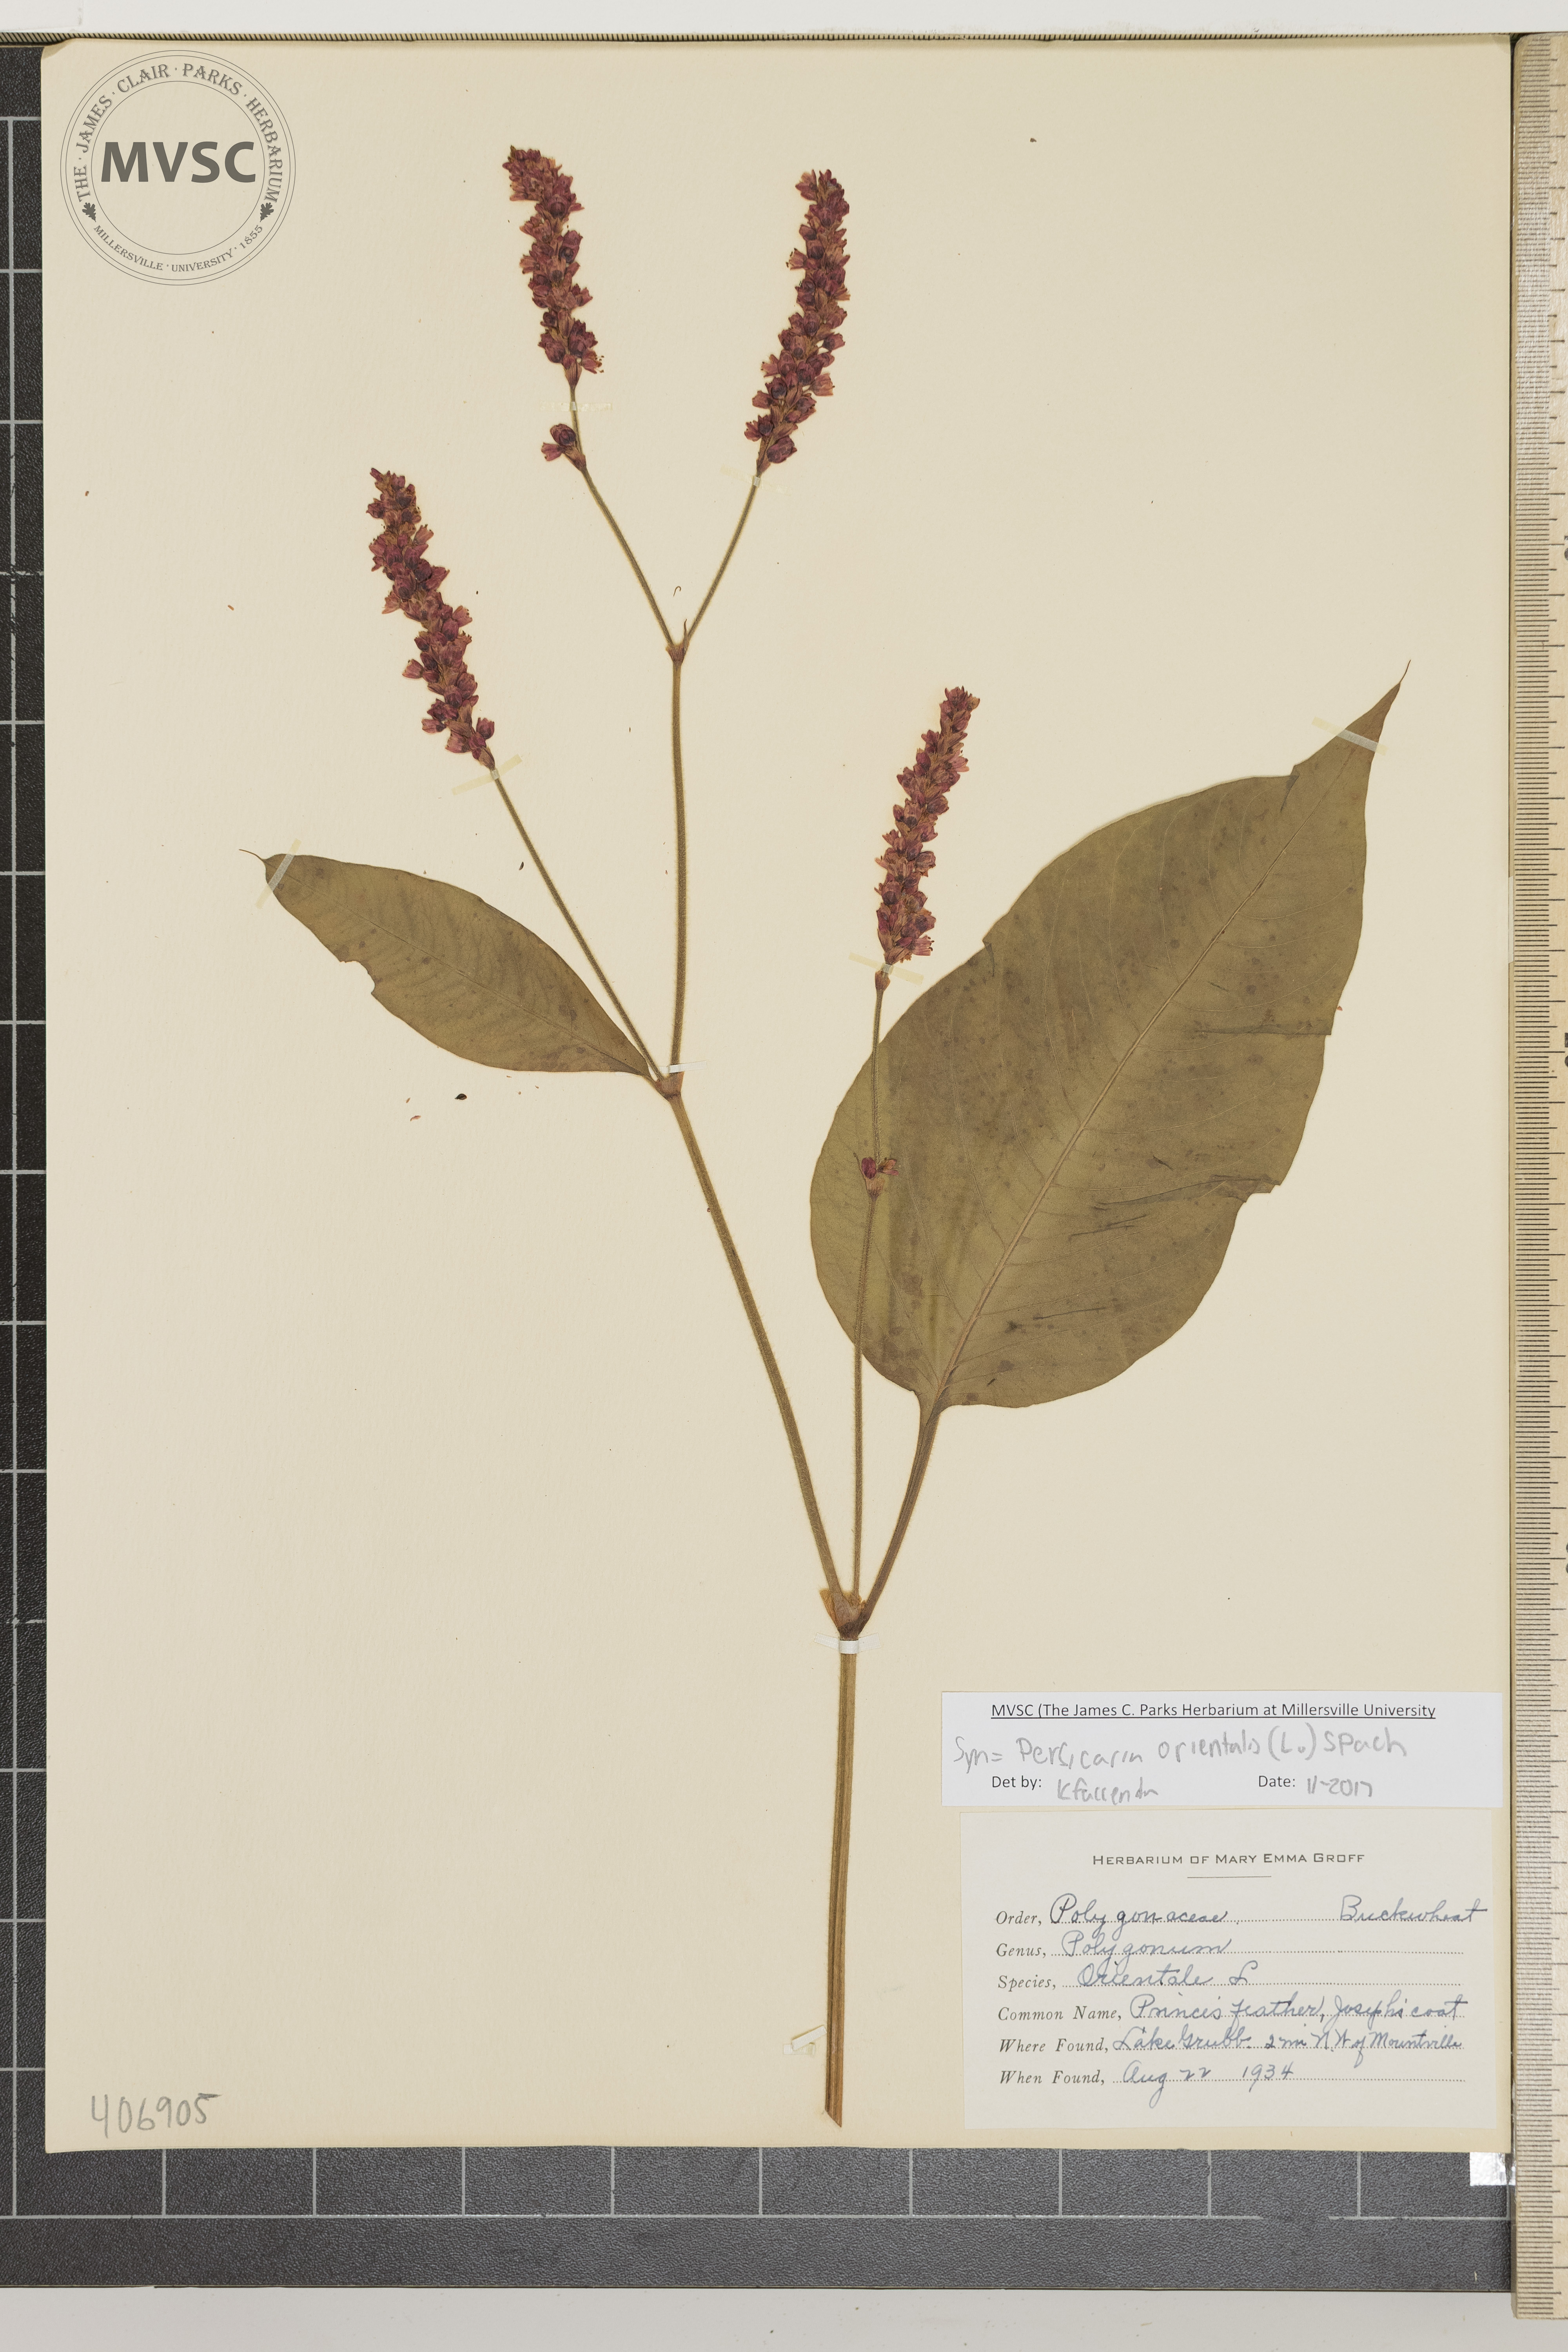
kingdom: Plantae
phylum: Tracheophyta
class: Magnoliopsida
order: Caryophyllales
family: Polygonaceae
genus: Persicaria
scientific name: Persicaria orientalis
